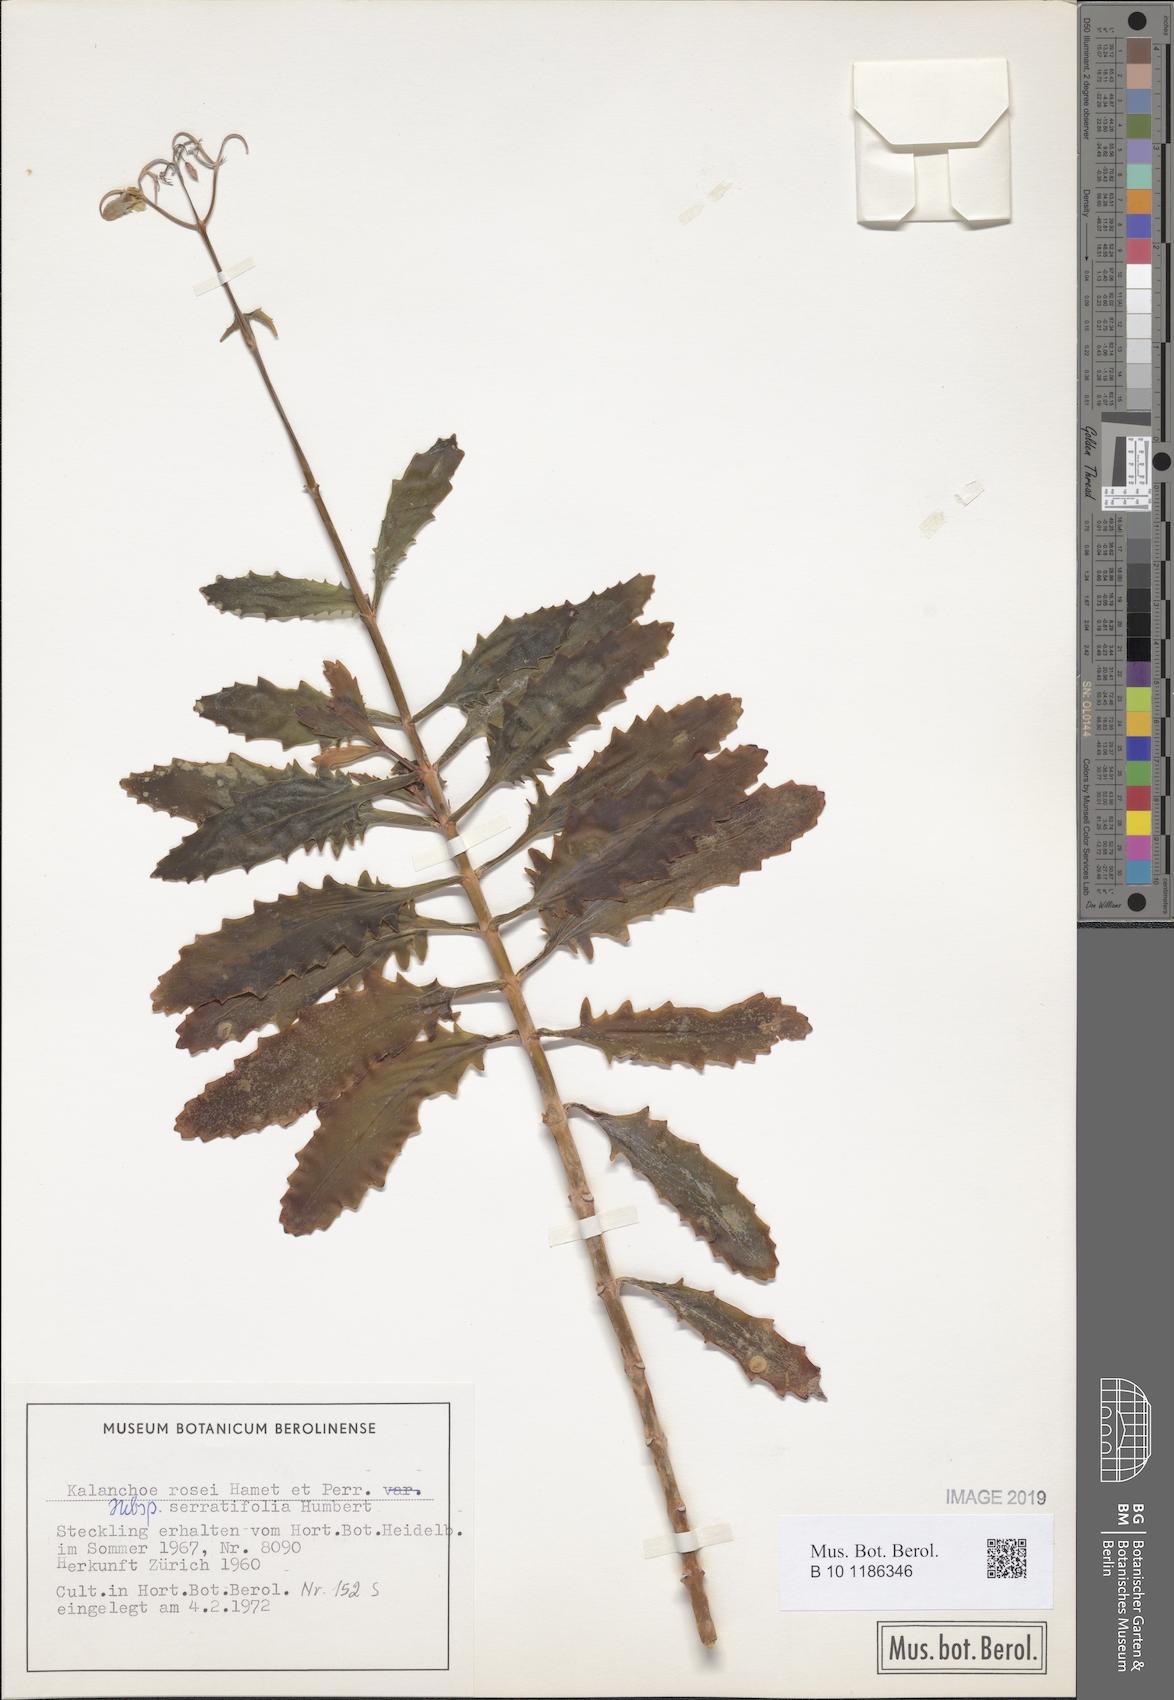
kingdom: Plantae
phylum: Tracheophyta
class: Magnoliopsida
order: Saxifragales
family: Crassulaceae
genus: Kalanchoe
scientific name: Kalanchoe rosei
